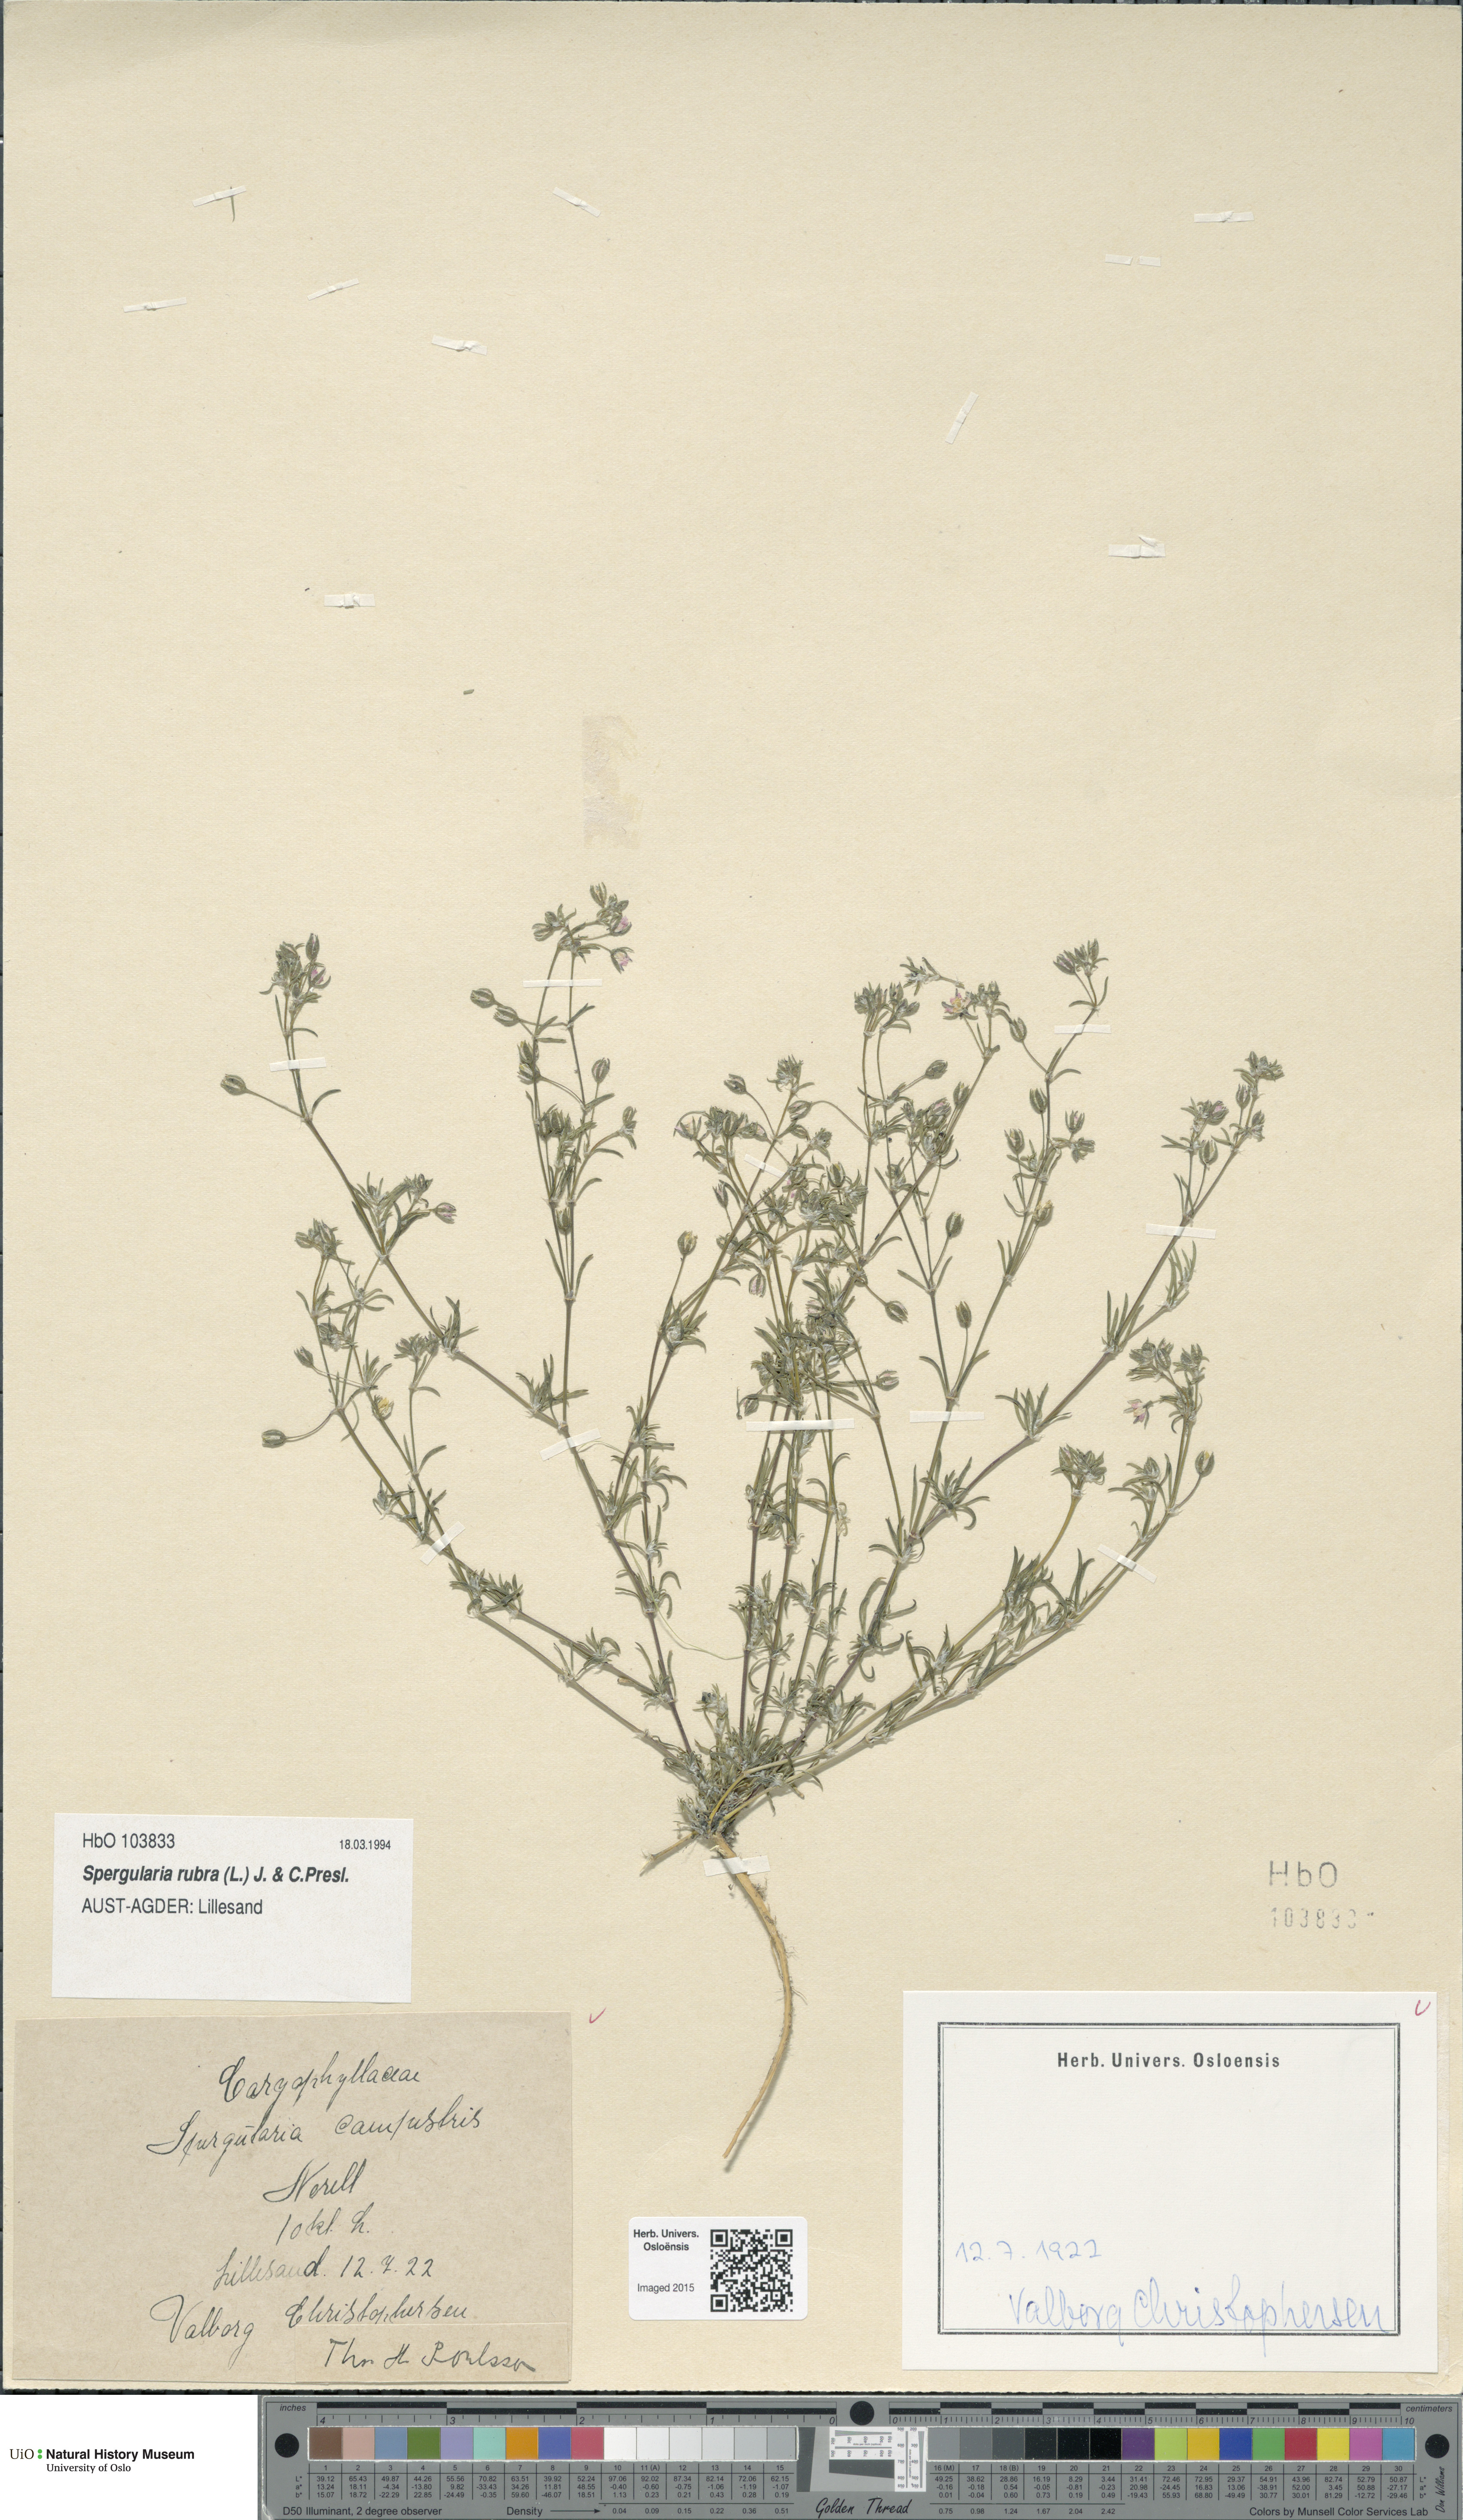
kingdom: Plantae
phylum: Tracheophyta
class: Magnoliopsida
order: Caryophyllales
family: Caryophyllaceae
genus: Spergularia
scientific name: Spergularia rubra
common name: Red sand-spurrey
